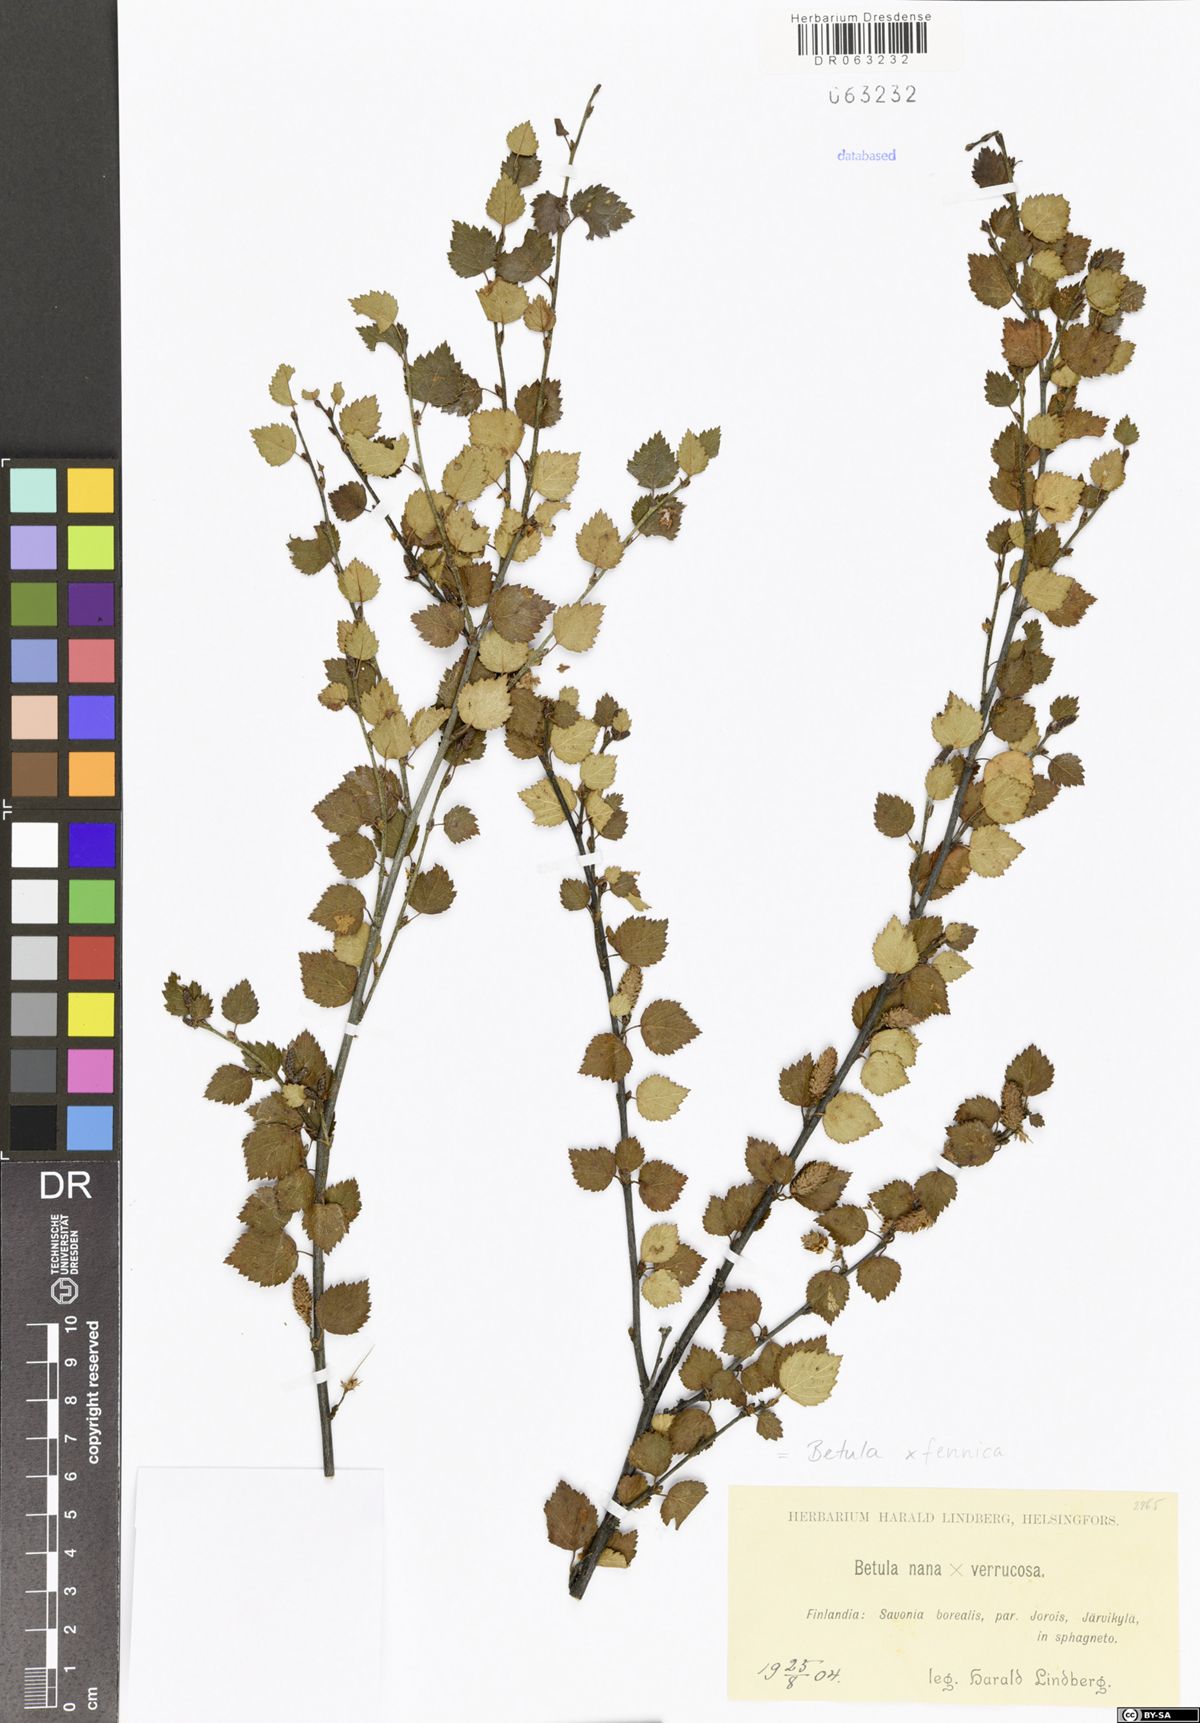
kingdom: Plantae
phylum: Tracheophyta
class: Magnoliopsida
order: Fagales
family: Betulaceae
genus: Betula
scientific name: Betula bottnica
